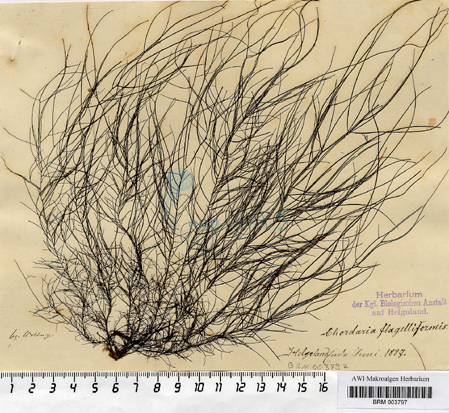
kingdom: Chromista
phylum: Ochrophyta
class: Phaeophyceae
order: Ectocarpales
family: Chordariaceae
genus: Chordaria
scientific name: Chordaria flagelliformis
